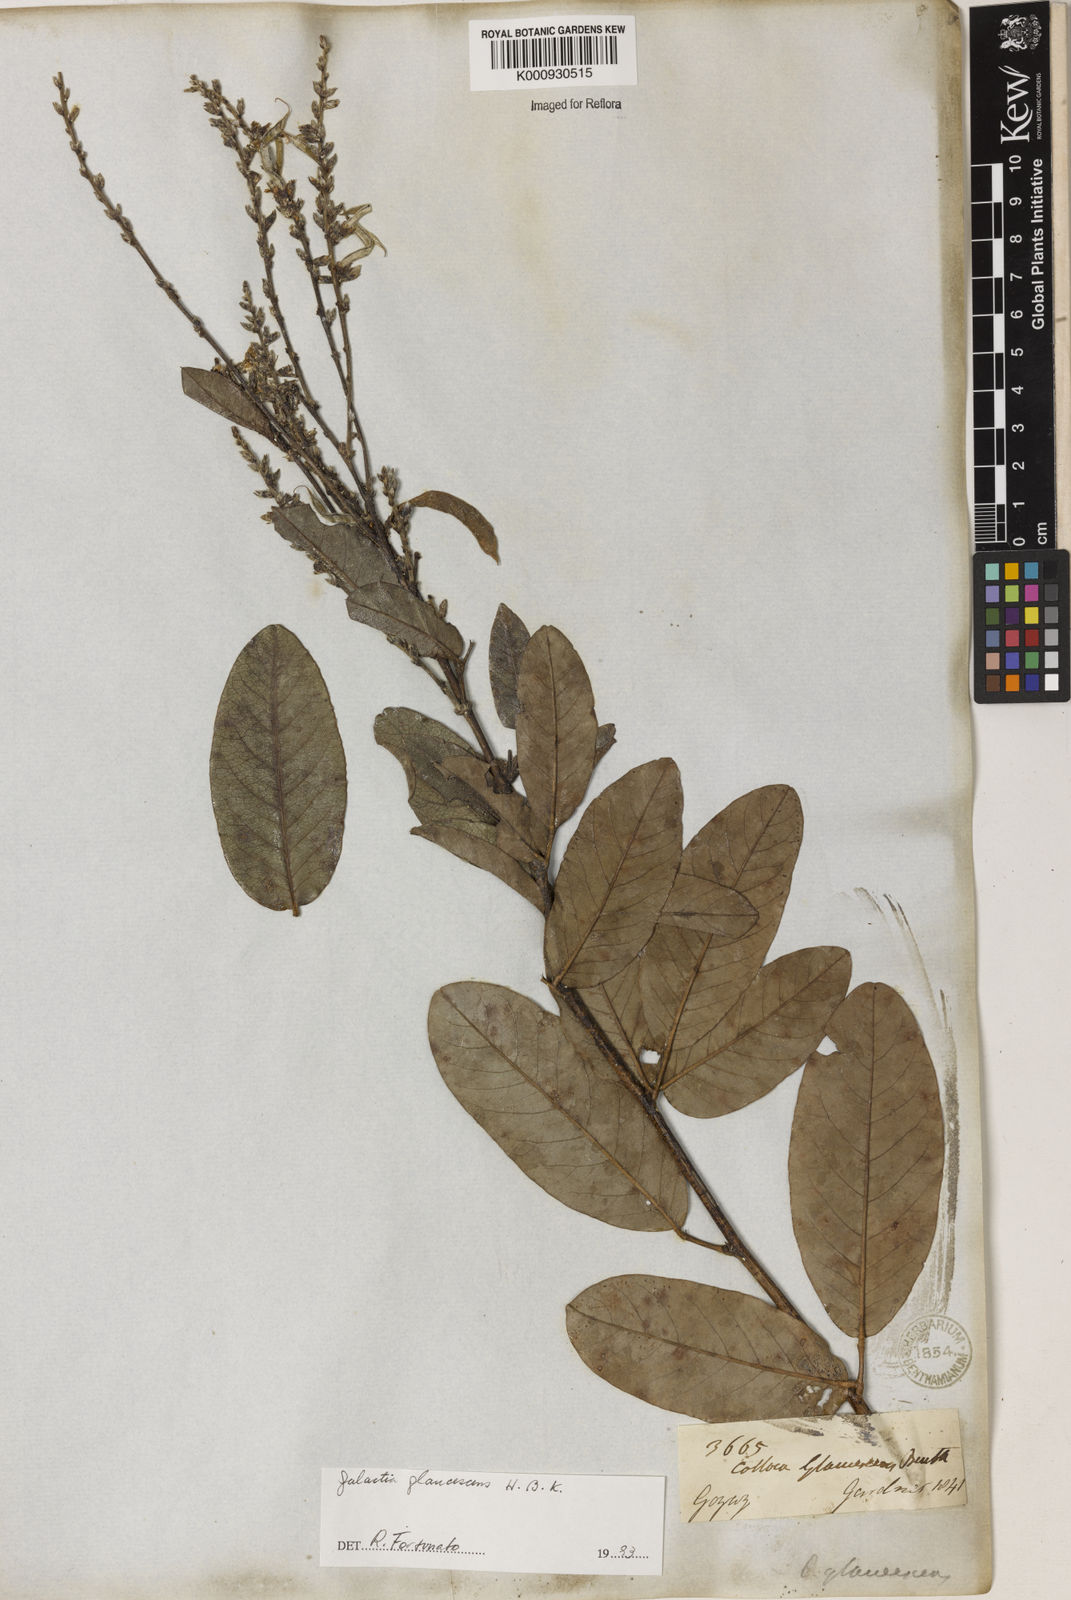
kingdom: Plantae
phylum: Tracheophyta
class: Magnoliopsida
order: Fabales
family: Fabaceae
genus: Galactia
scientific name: Galactia glaucescens
